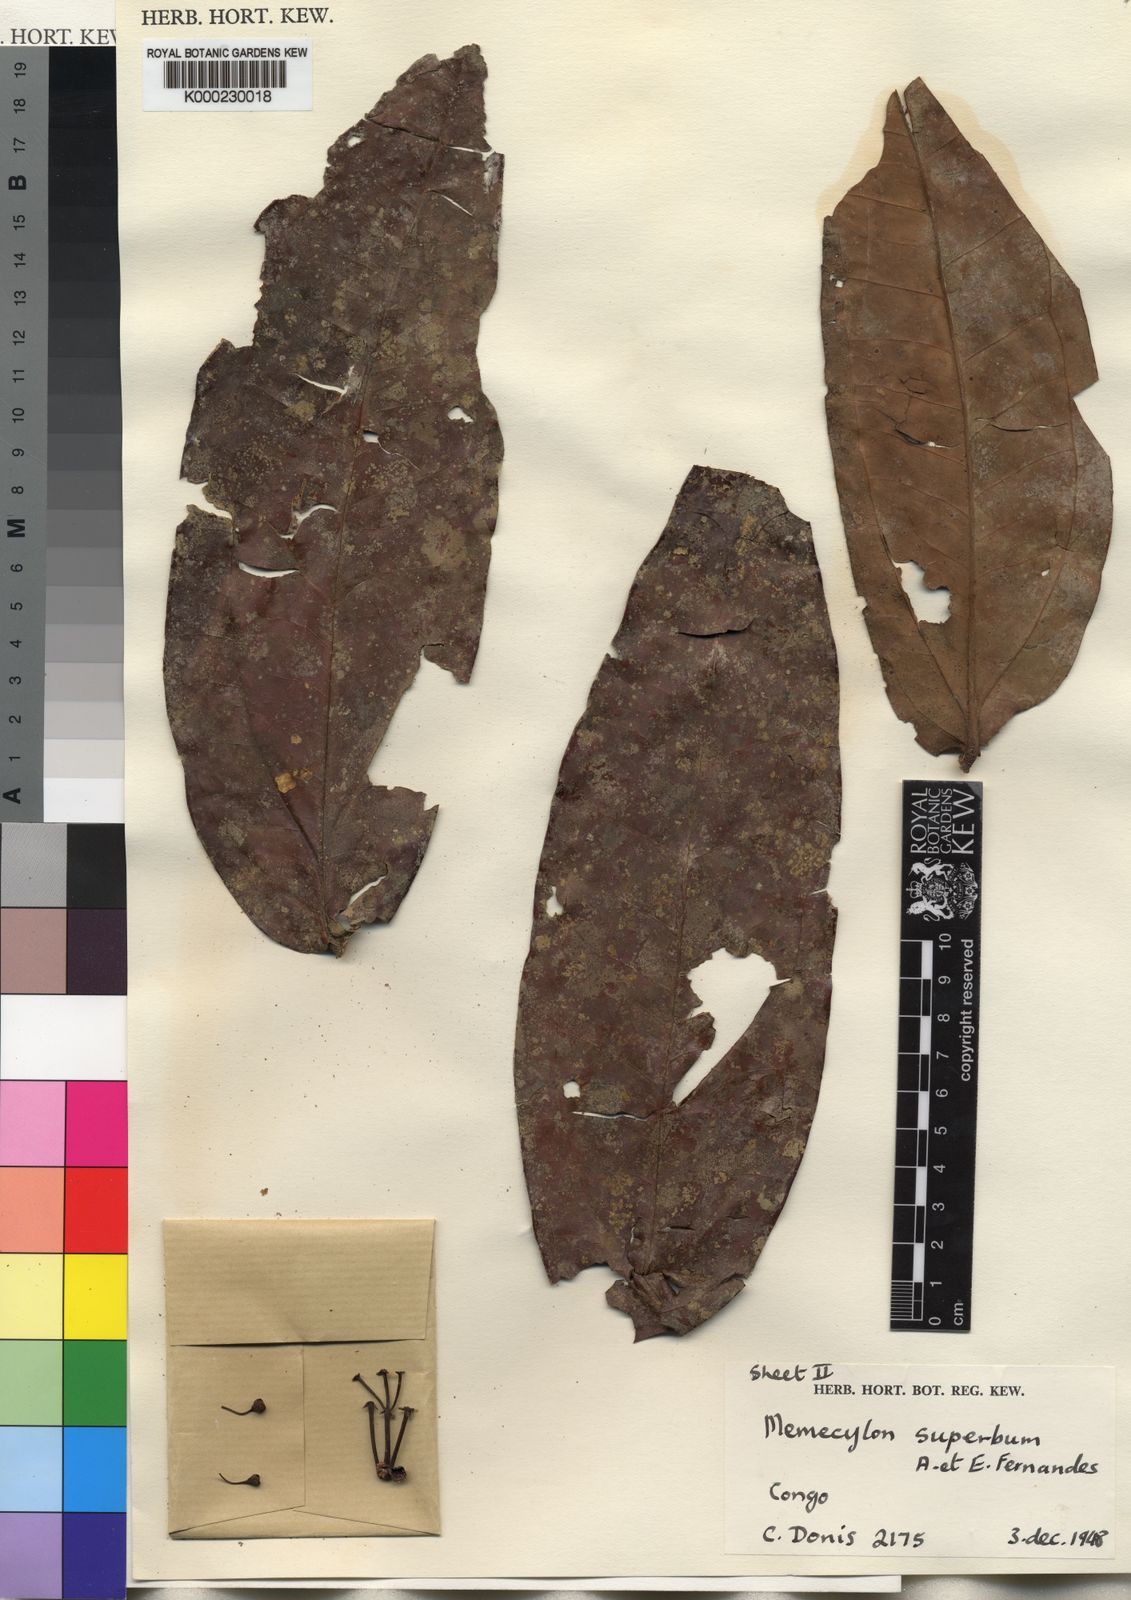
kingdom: Plantae
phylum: Tracheophyta
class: Magnoliopsida
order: Myrtales
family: Melastomataceae
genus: Warneckea
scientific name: Warneckea
